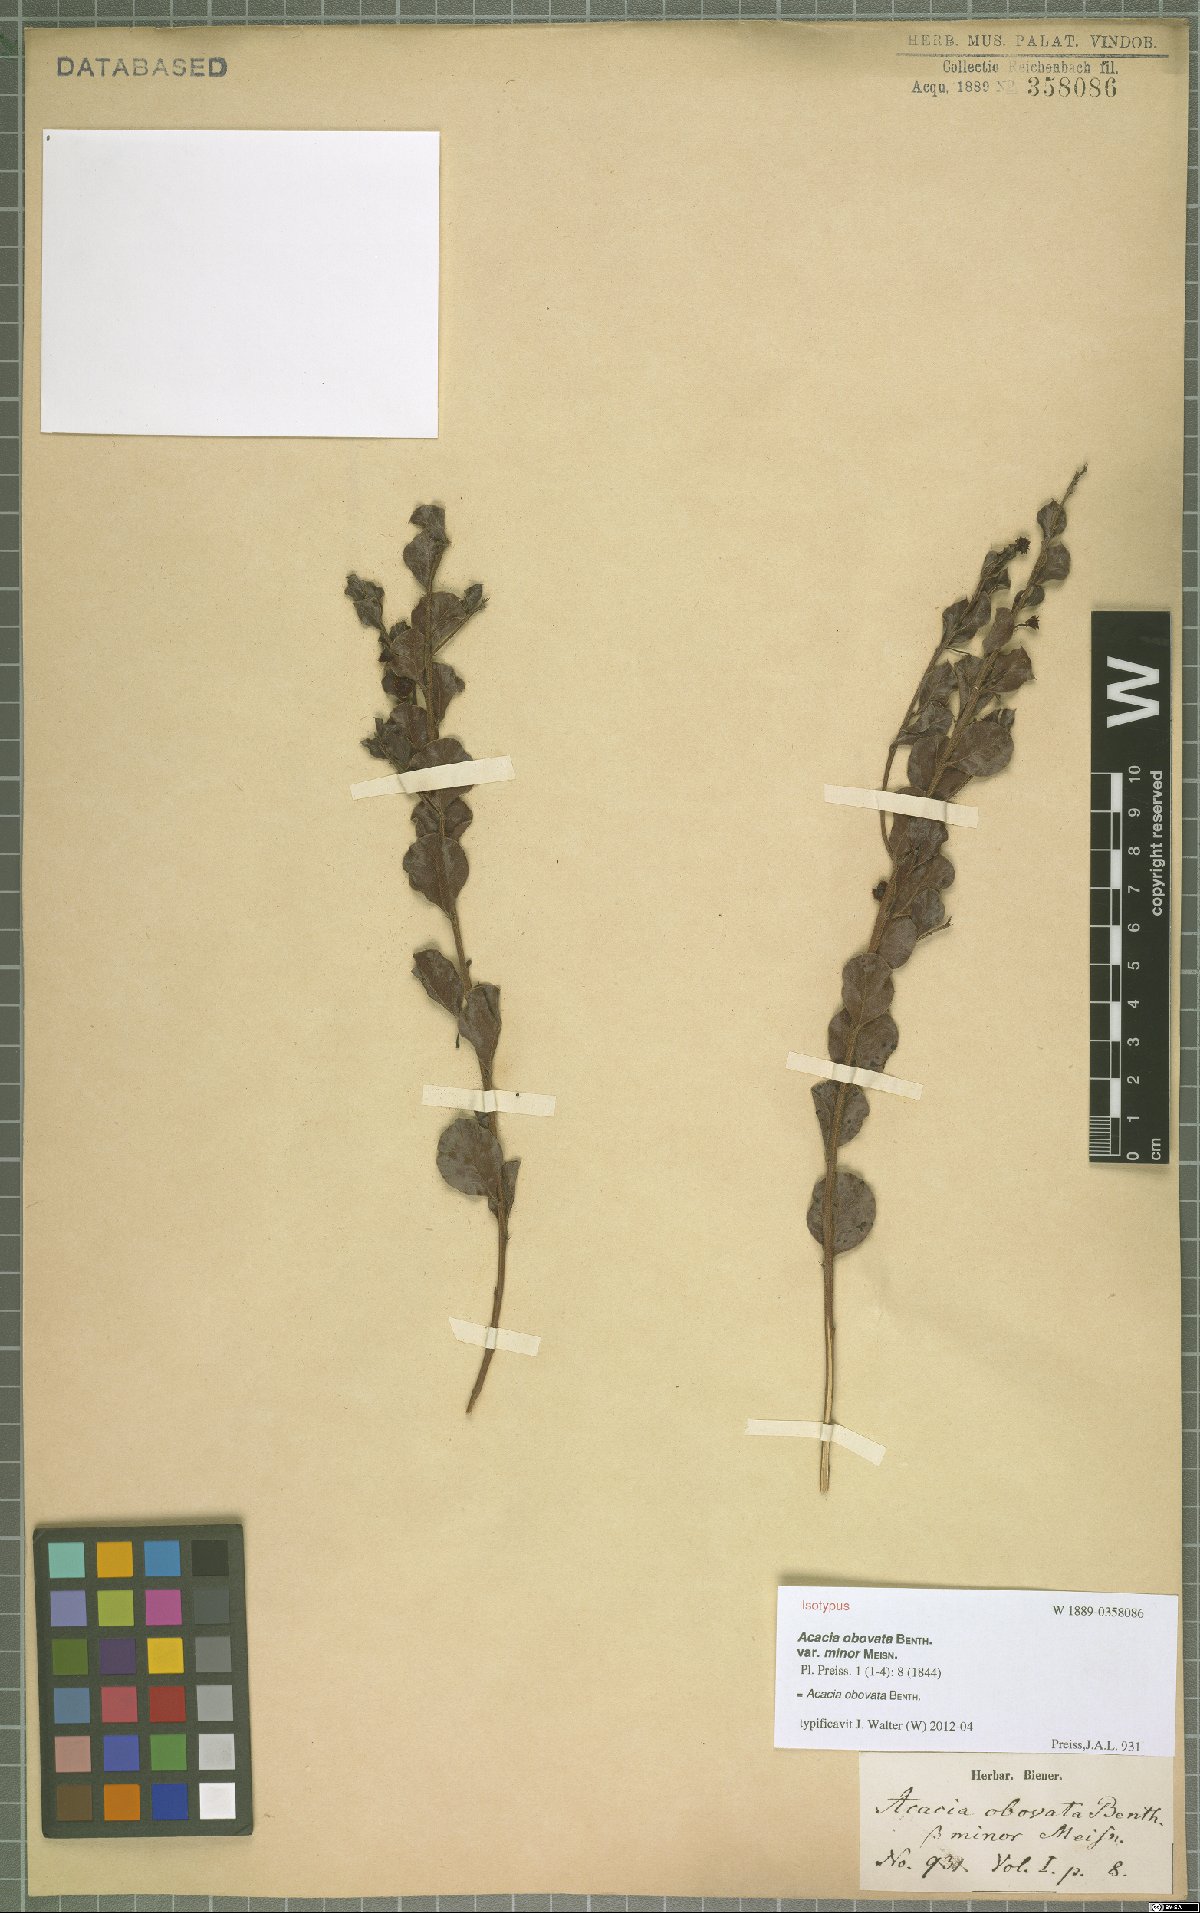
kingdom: Plantae
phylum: Tracheophyta
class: Magnoliopsida
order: Fabales
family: Fabaceae
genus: Acacia
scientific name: Acacia obovata
